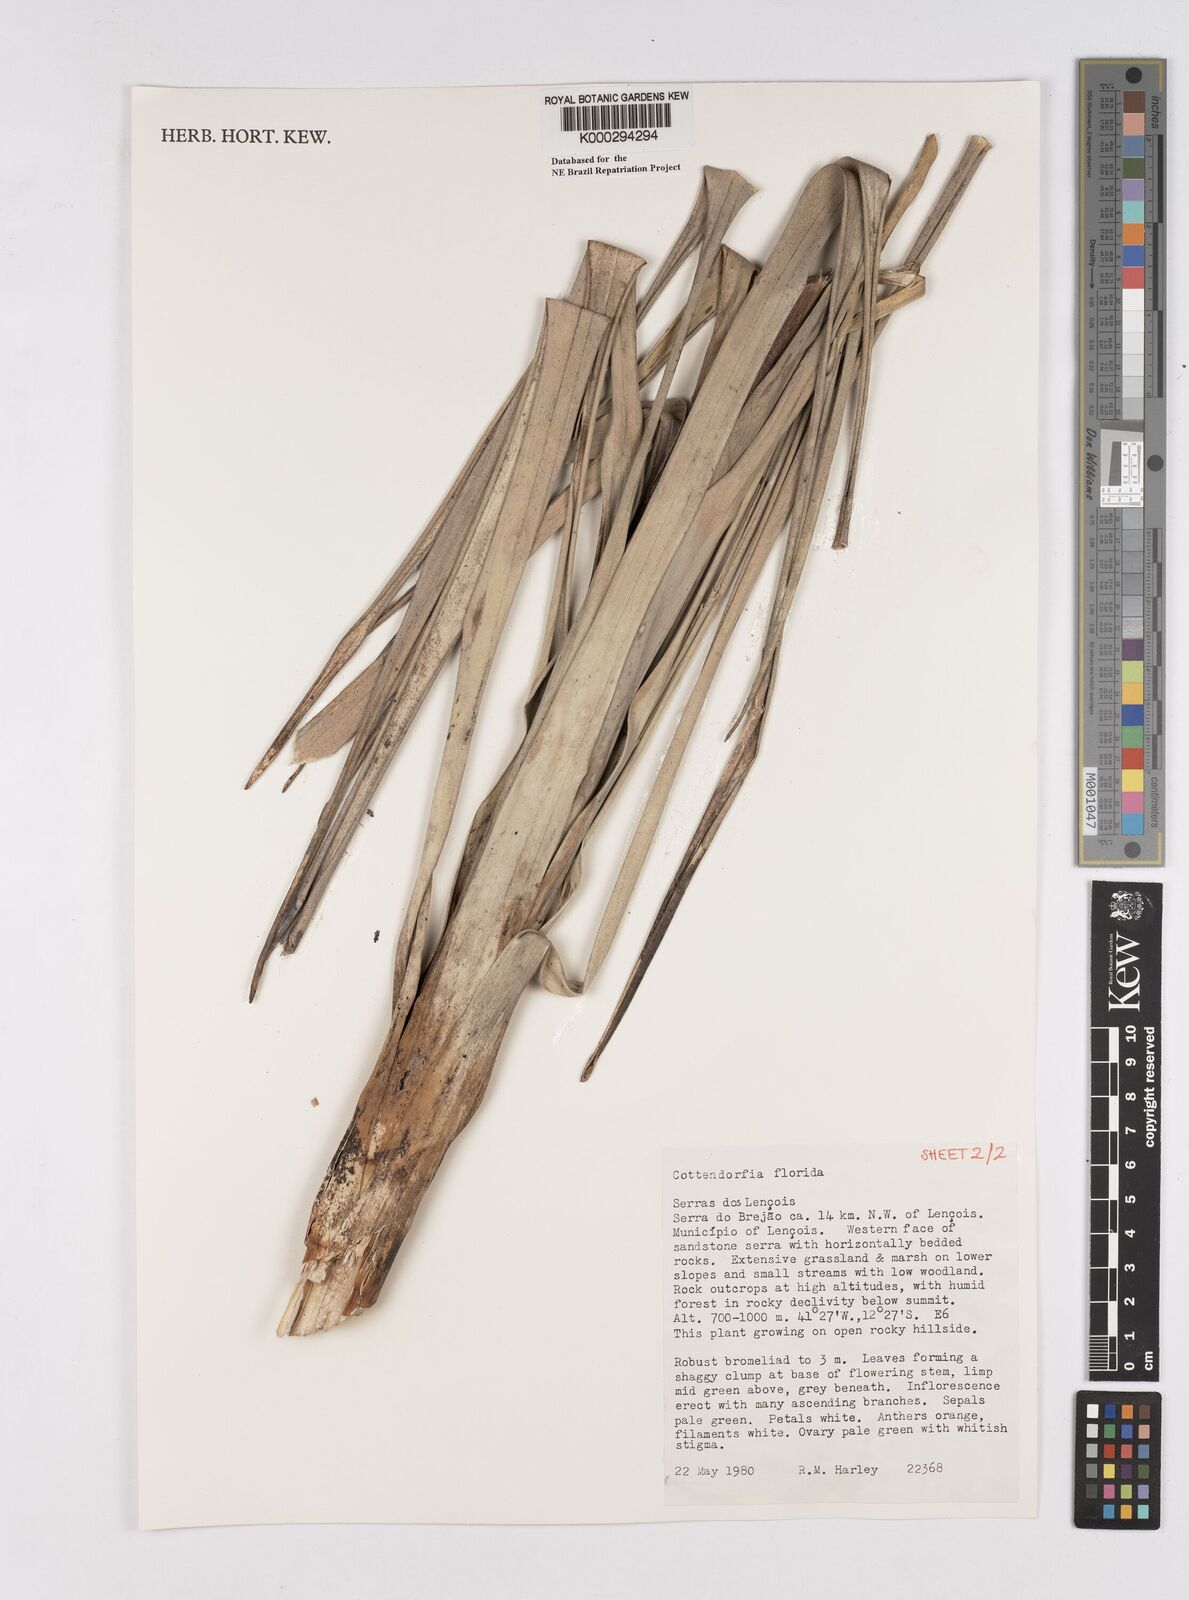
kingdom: Plantae
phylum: Tracheophyta
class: Liliopsida
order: Poales
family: Bromeliaceae
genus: Cottendorfia
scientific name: Cottendorfia florida
